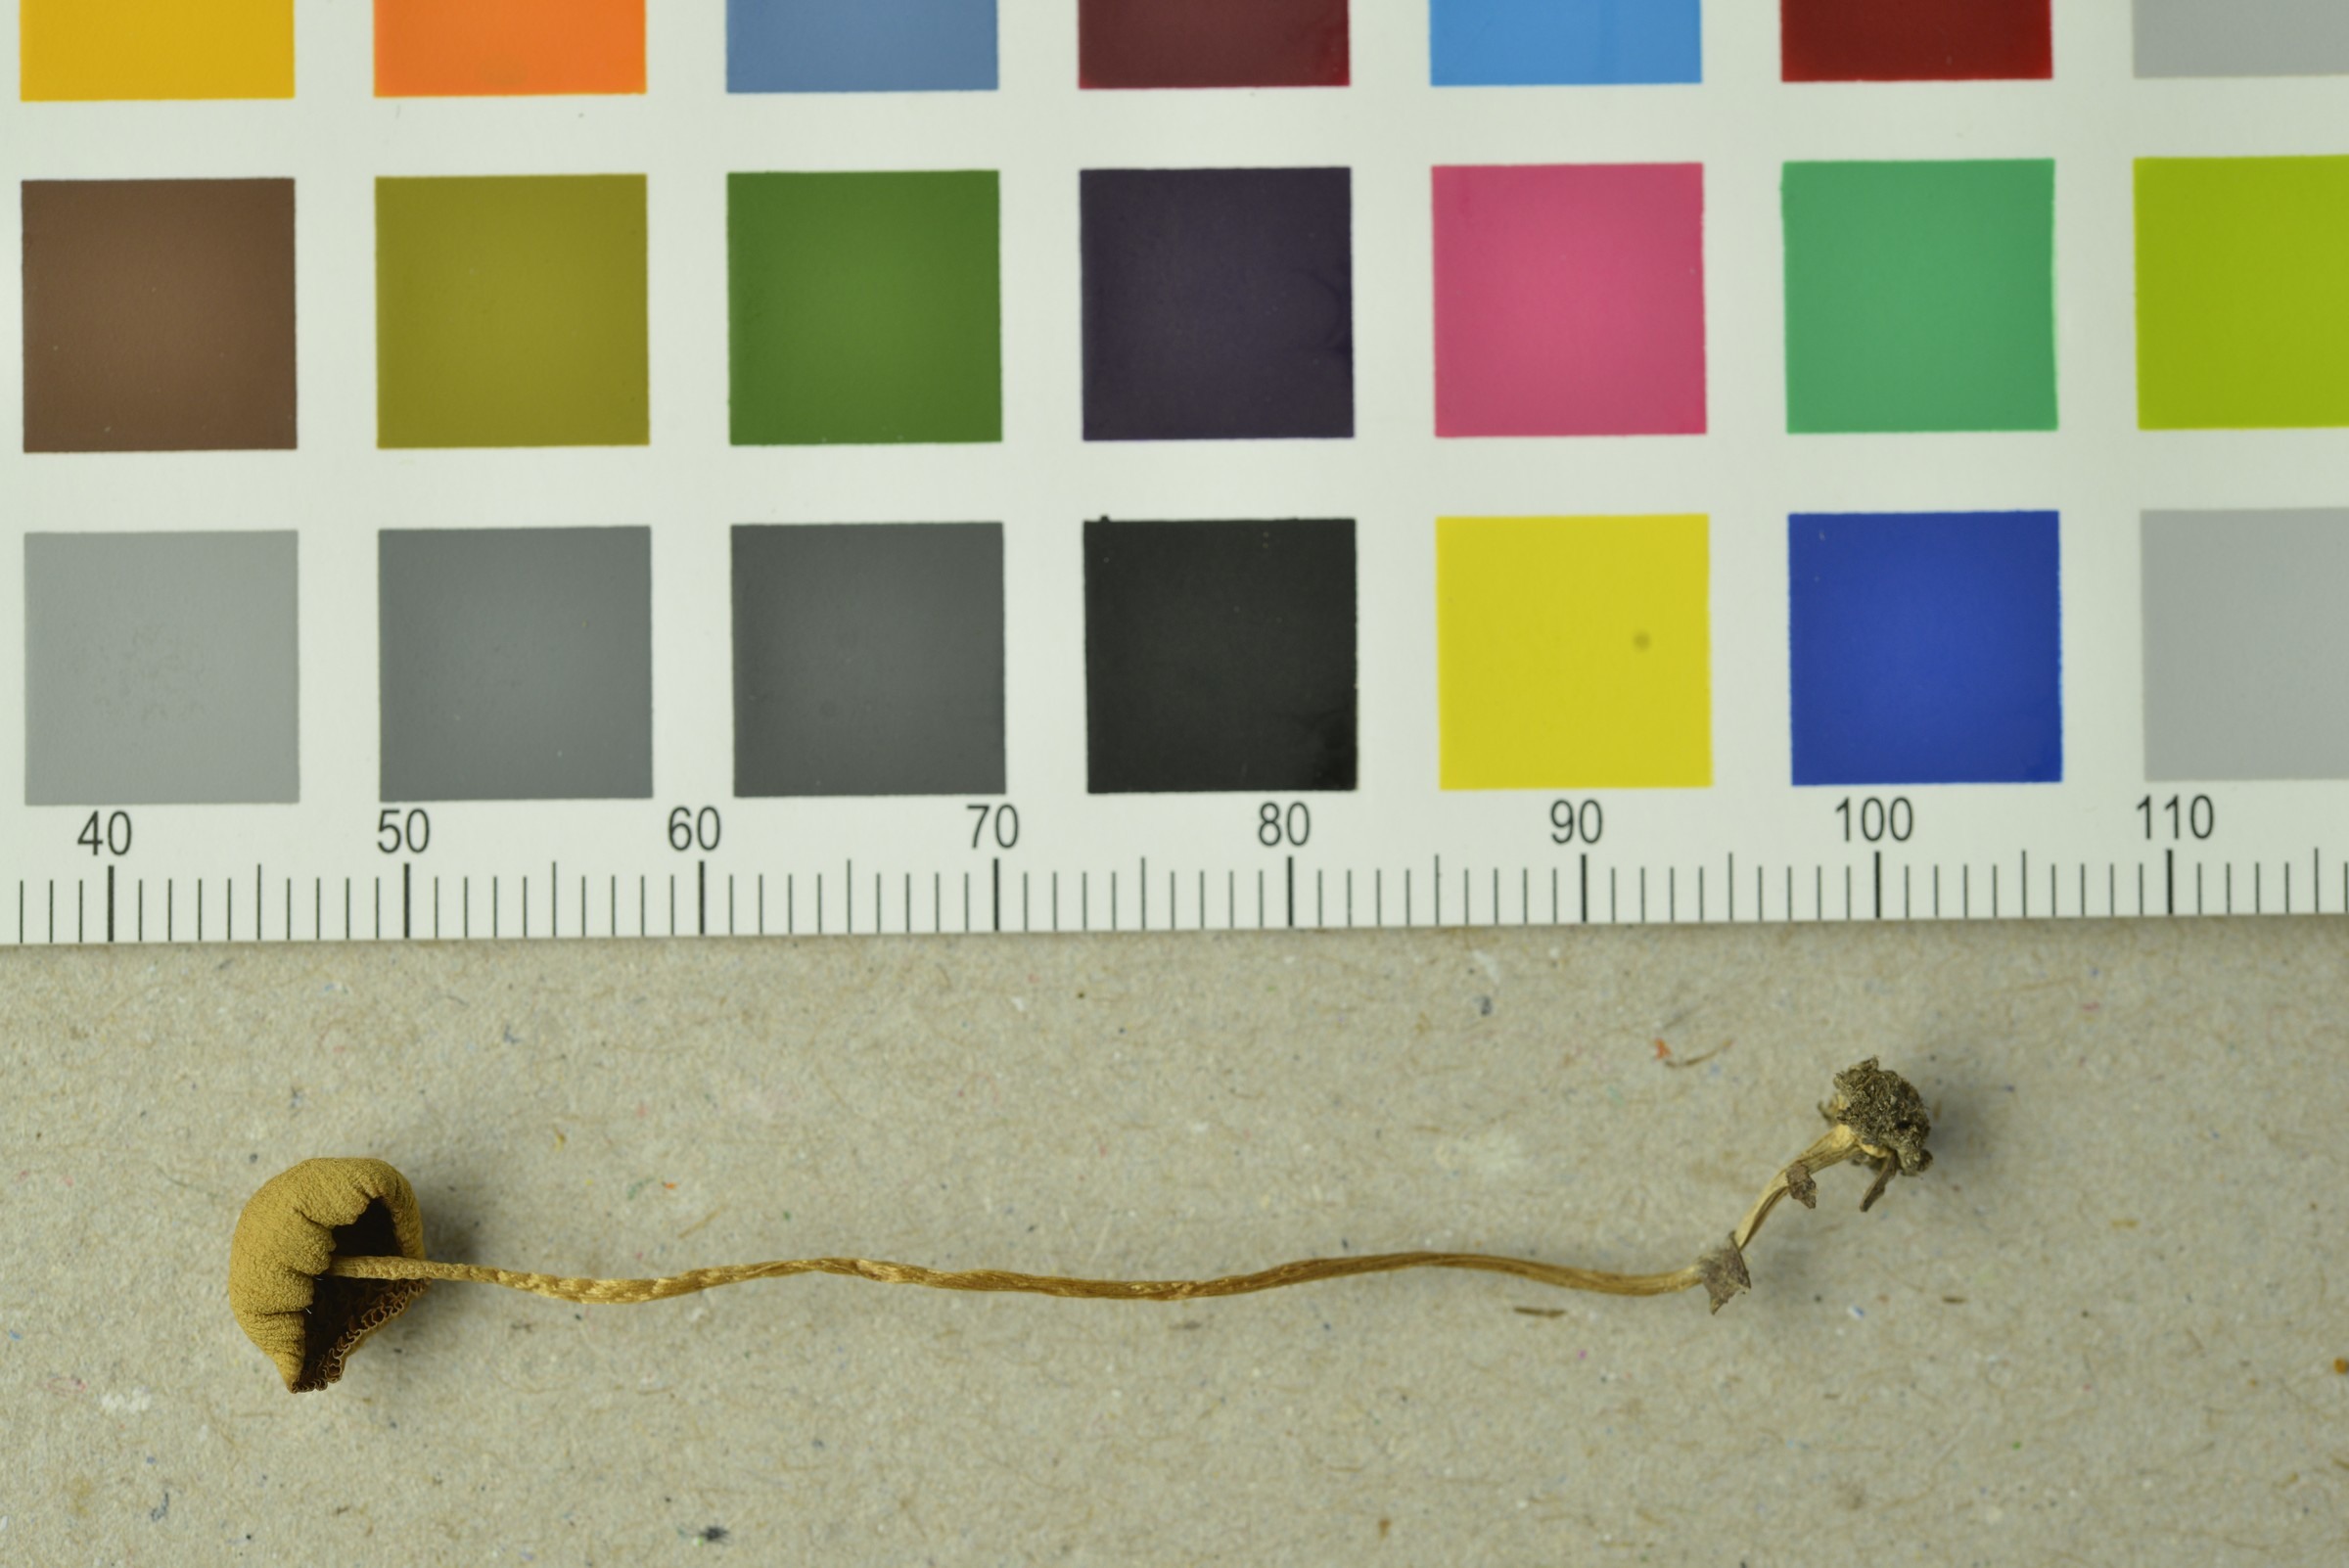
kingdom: Fungi
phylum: Basidiomycota
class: Agaricomycetes
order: Agaricales
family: Bolbitiaceae
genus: Conocybe
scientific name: Conocybe tenera
